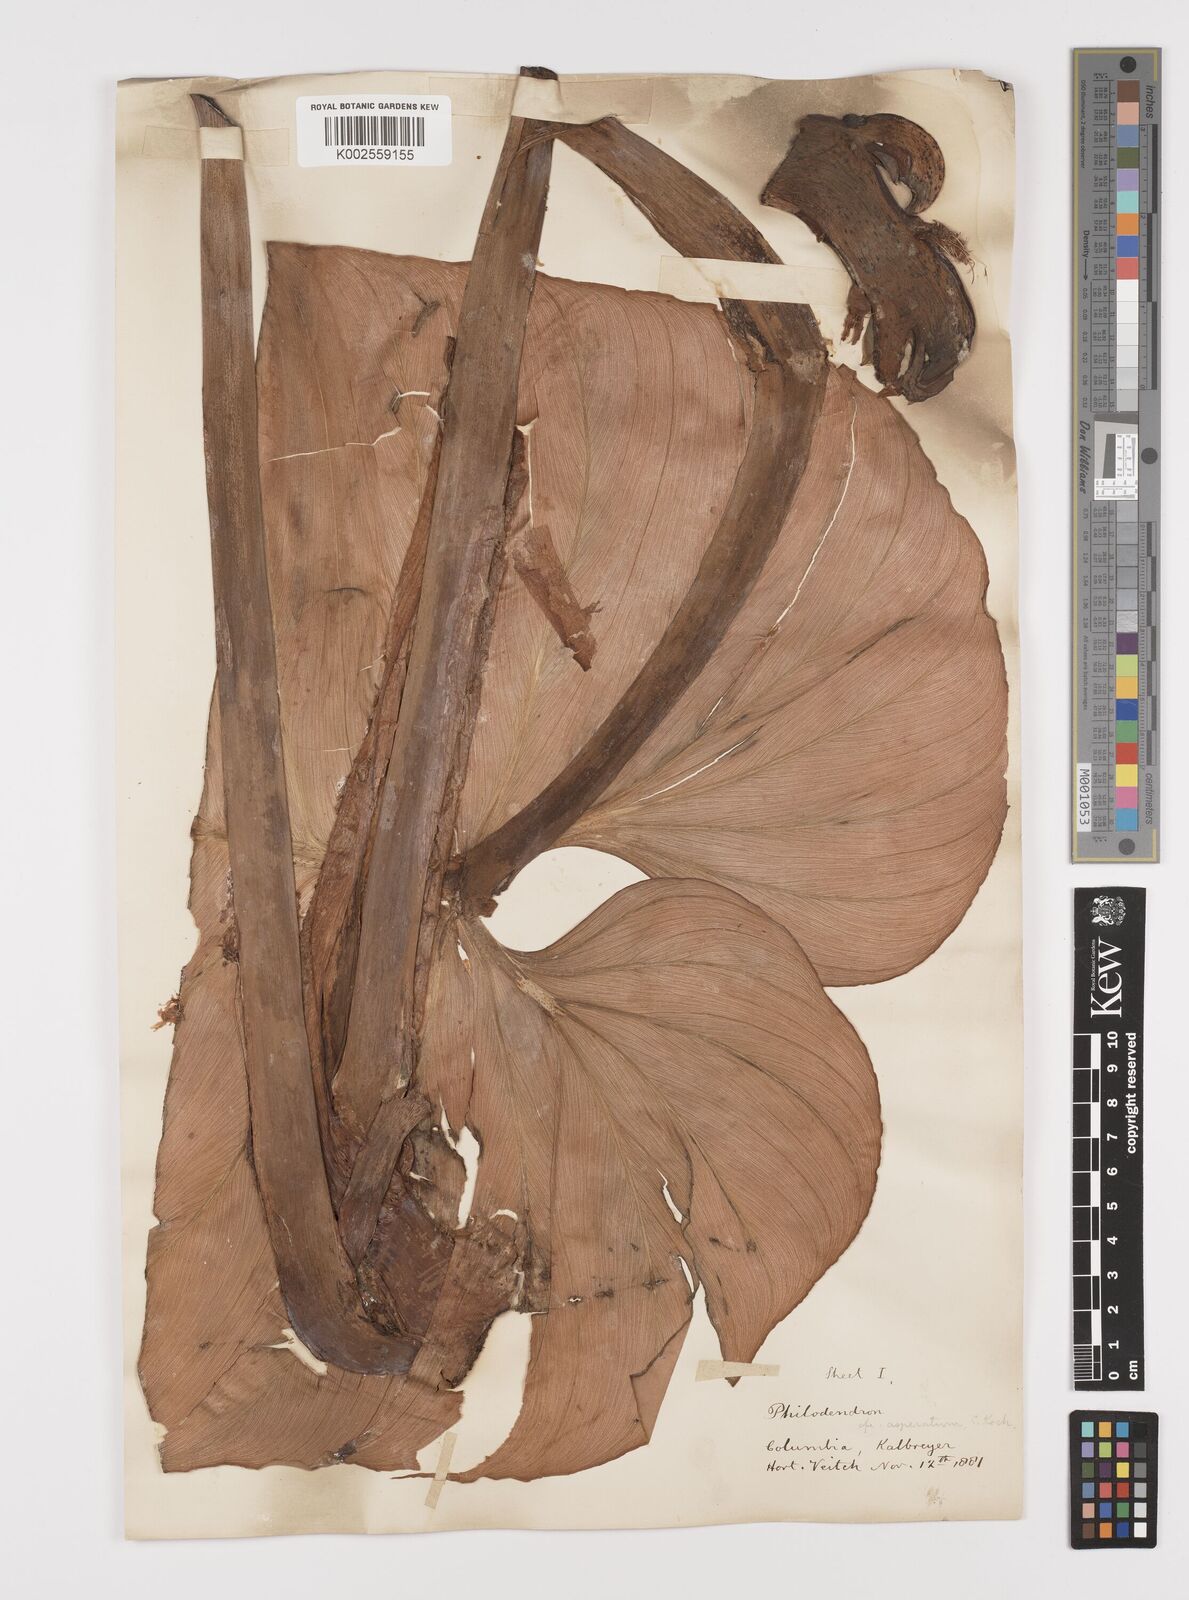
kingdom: Plantae
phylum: Tracheophyta
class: Liliopsida
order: Alismatales
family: Araceae
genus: Philodendron
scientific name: Philodendron ornatum
